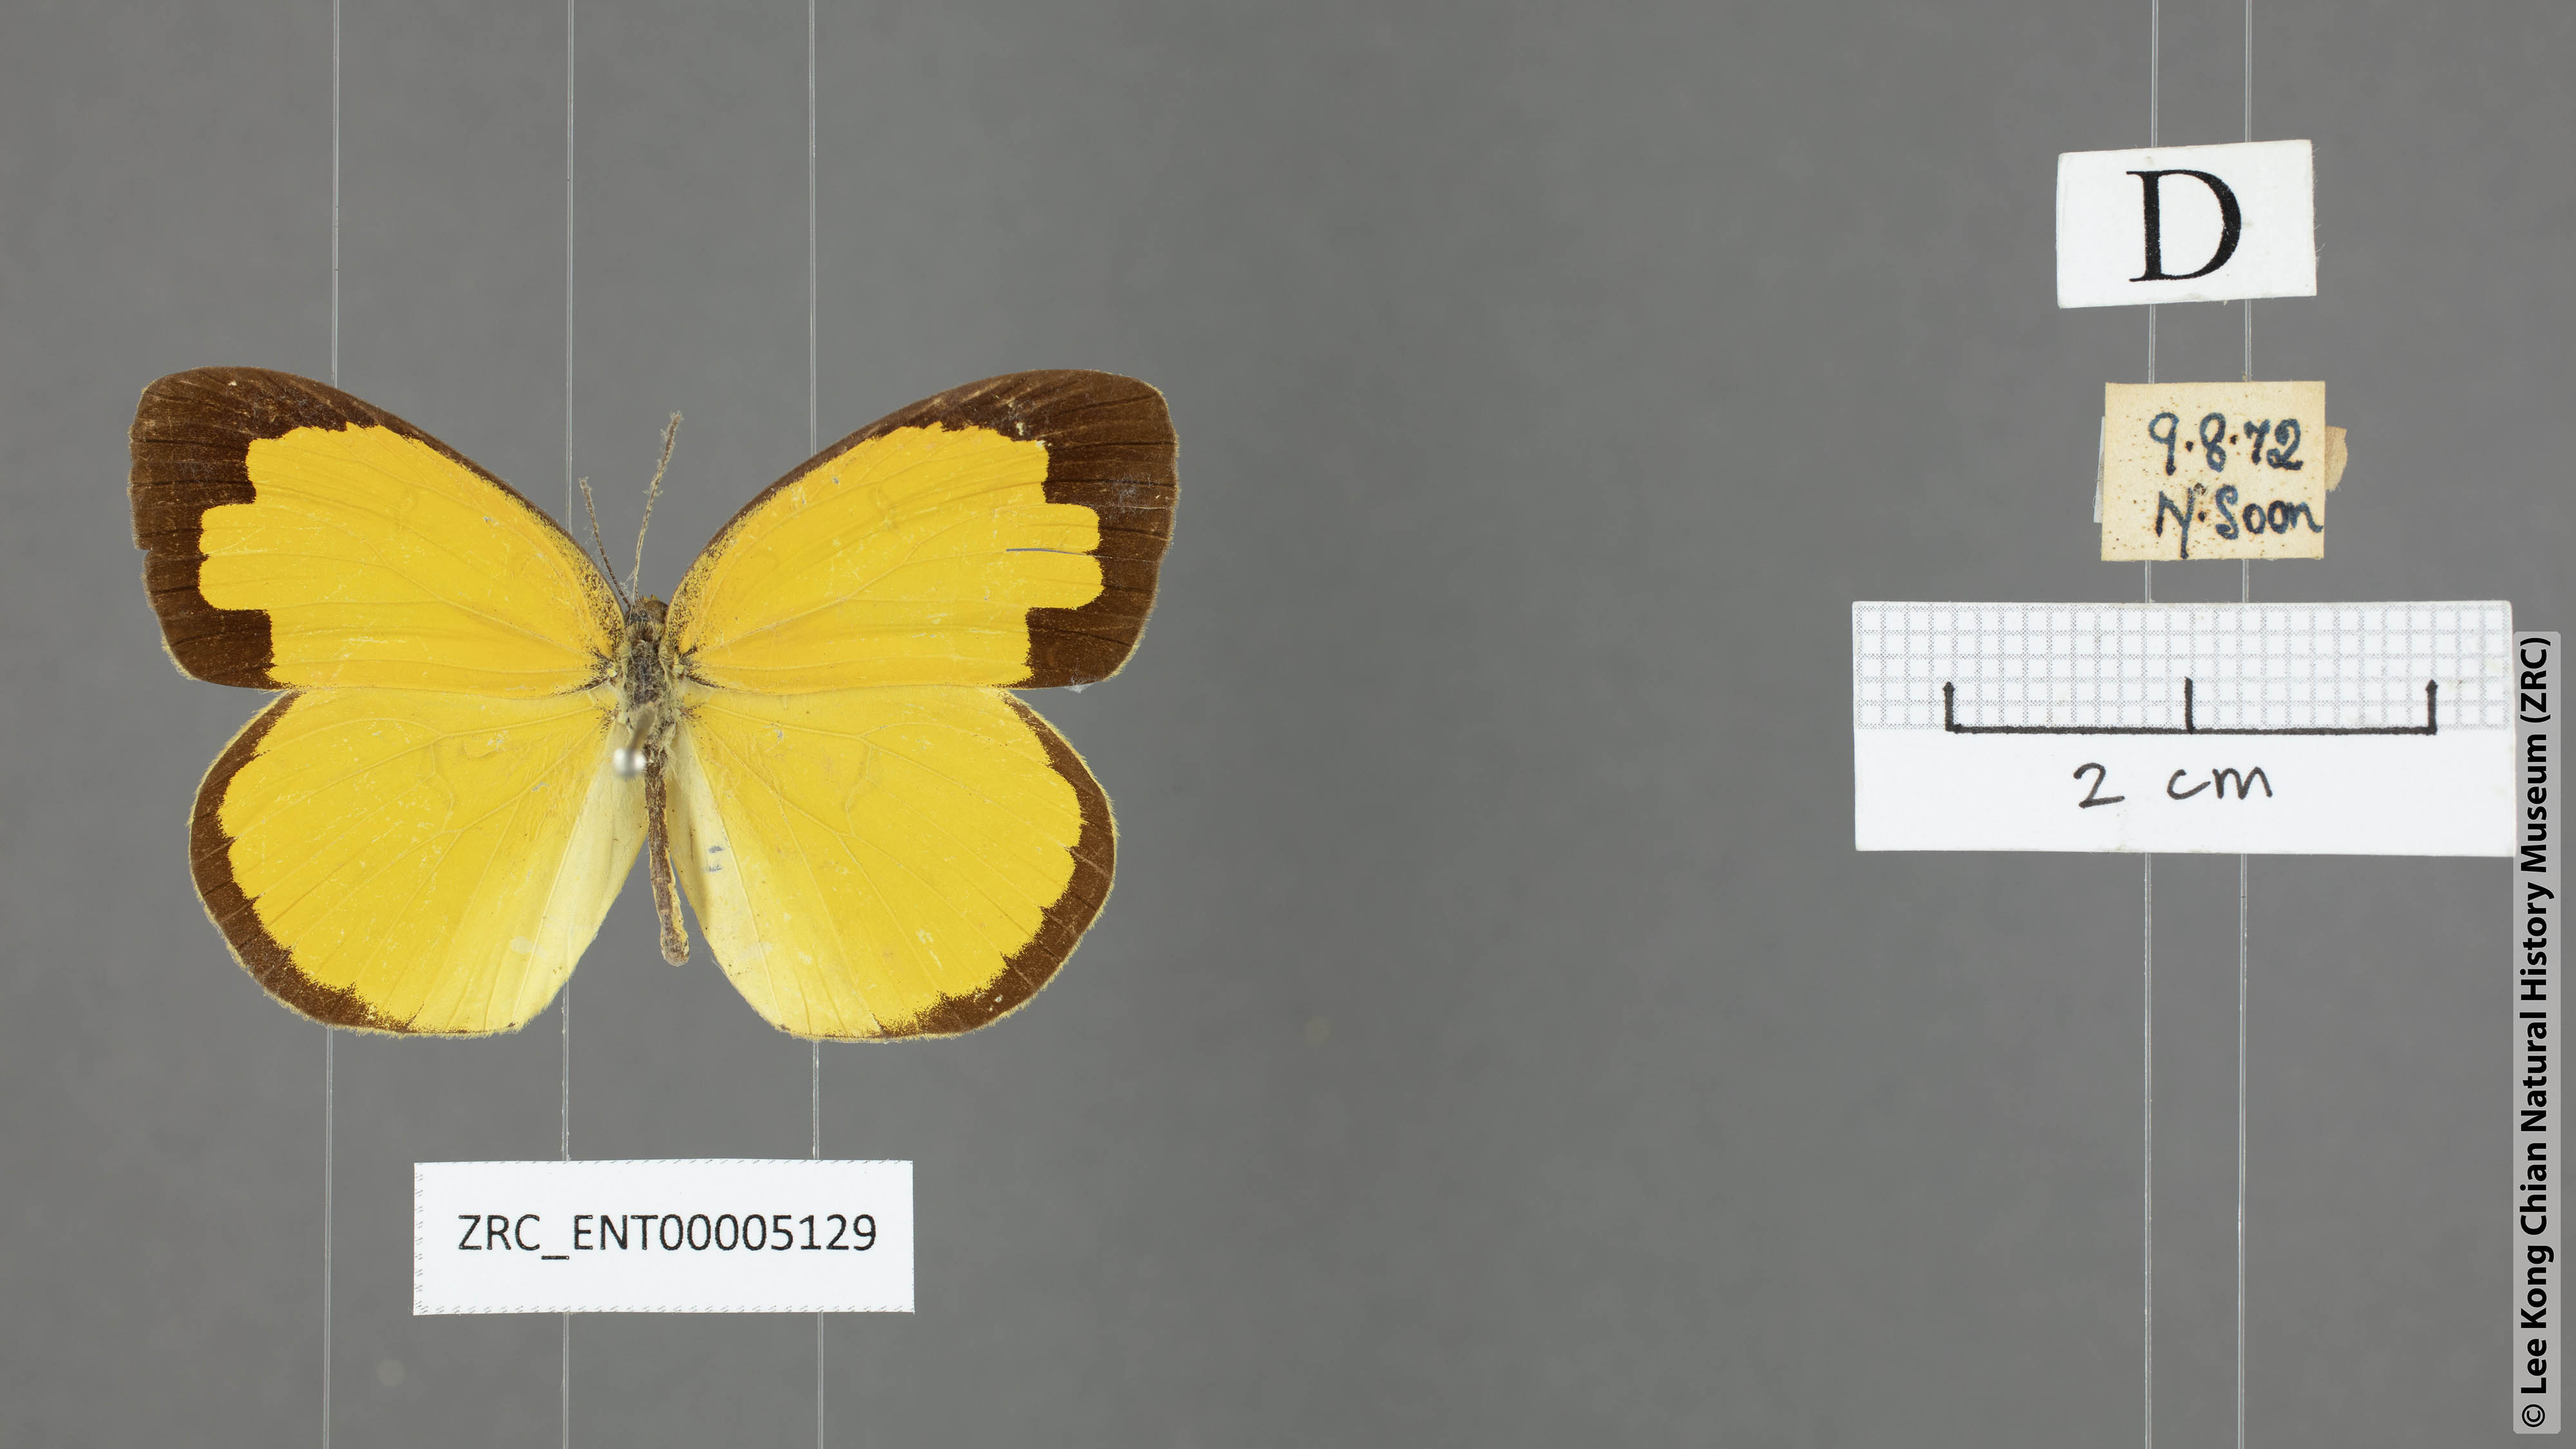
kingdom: Animalia
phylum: Arthropoda
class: Insecta
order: Lepidoptera
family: Pieridae
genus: Eurema
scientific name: Eurema hecabe
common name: Pale grass yellow
